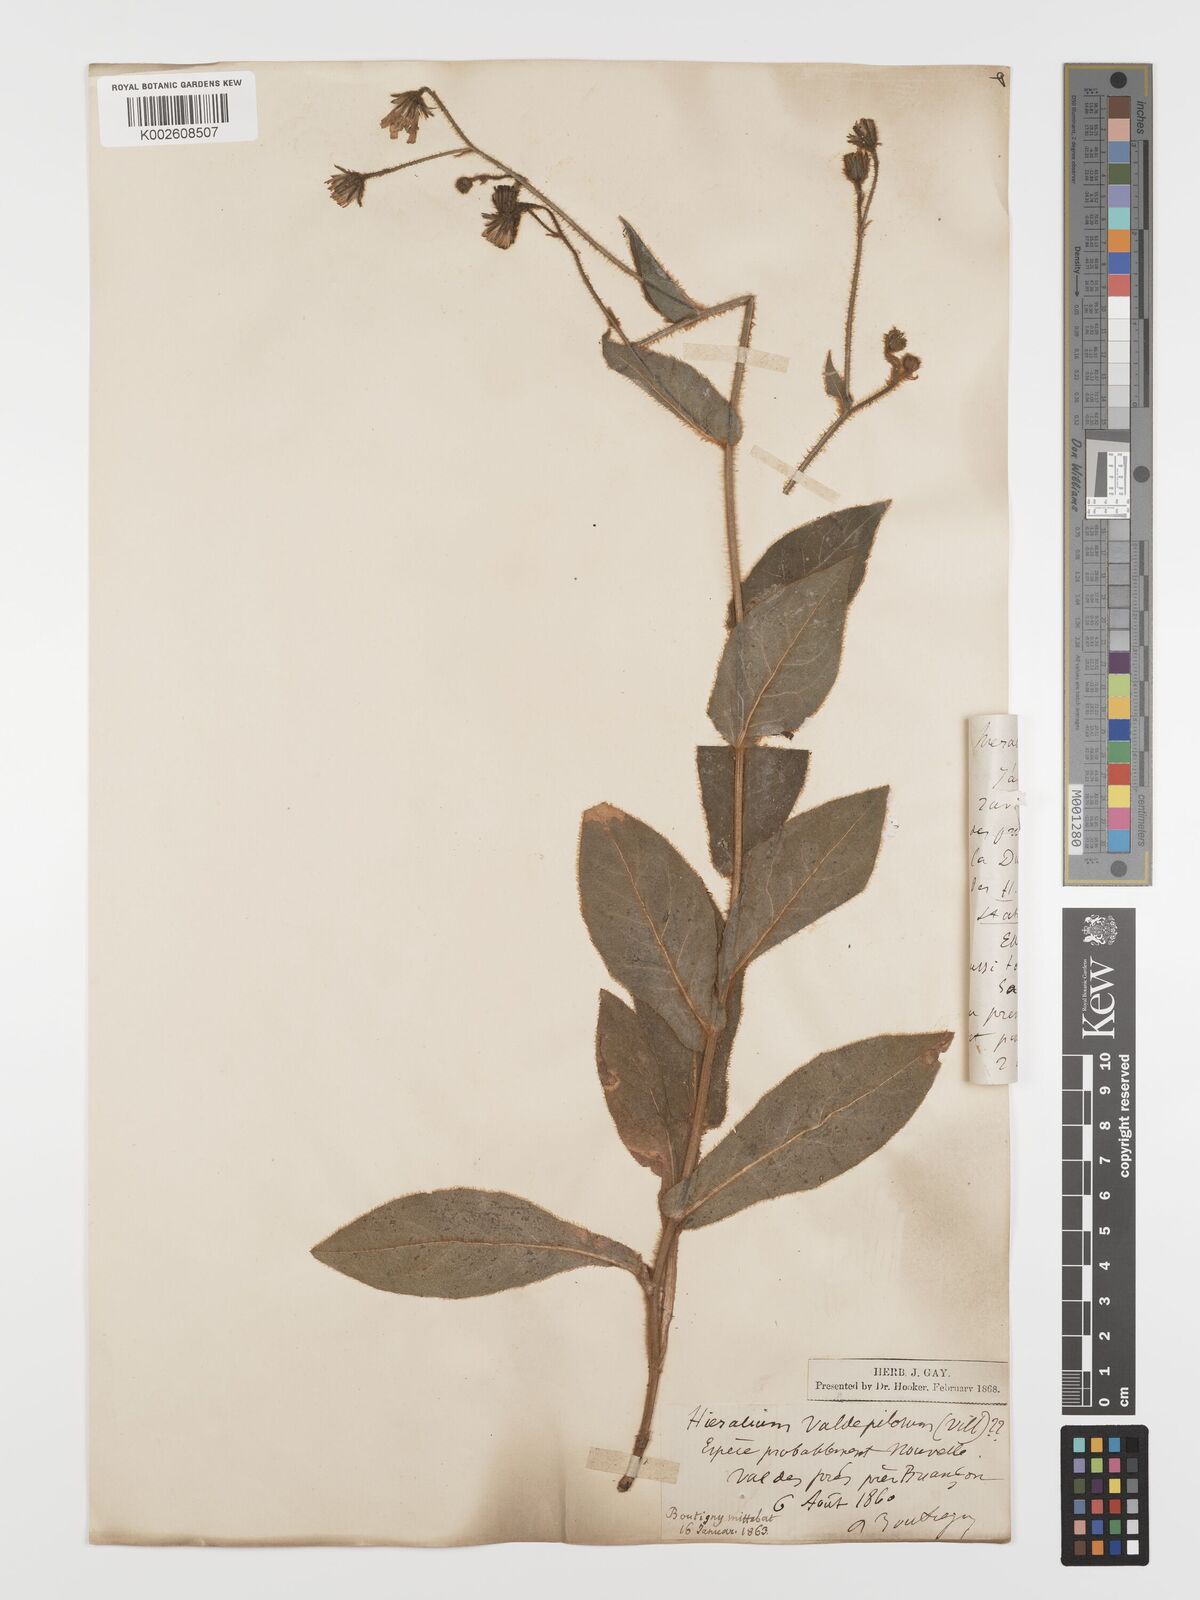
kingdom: Plantae
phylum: Tracheophyta
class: Magnoliopsida
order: Asterales
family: Asteraceae
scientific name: Asteraceae
